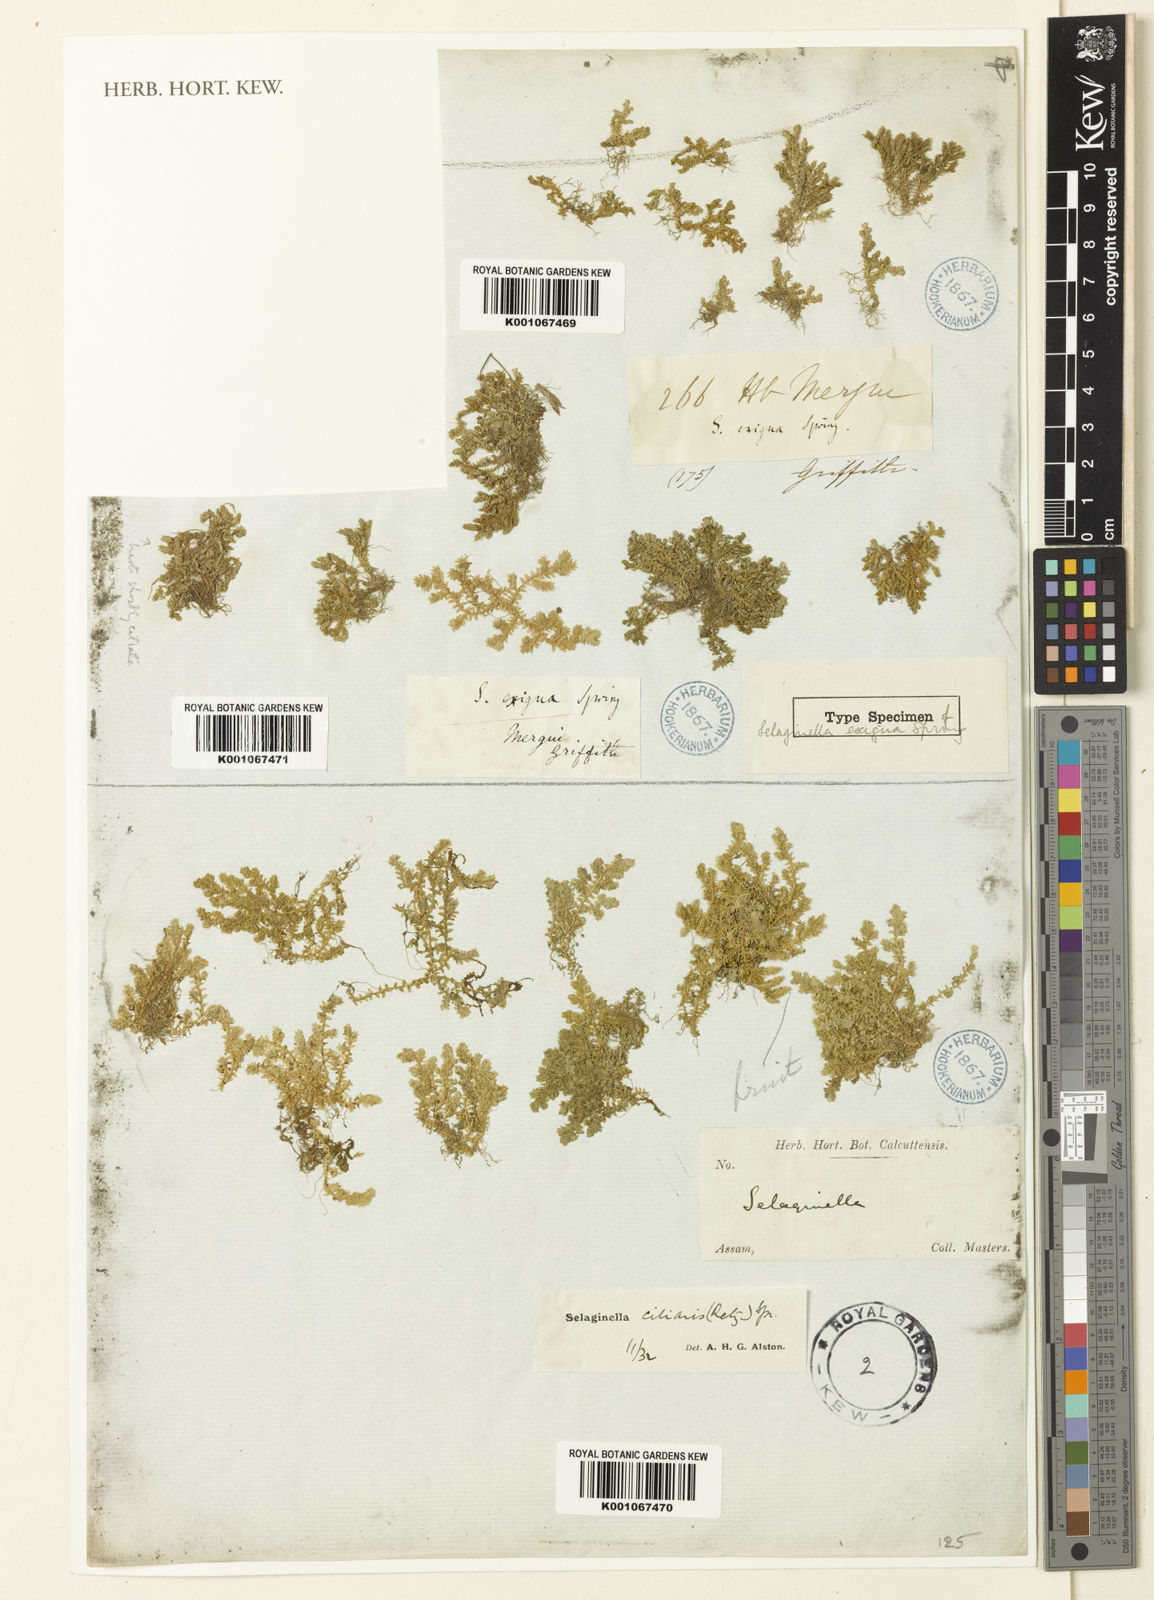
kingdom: Plantae
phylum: Tracheophyta
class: Lycopodiopsida
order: Selaginellales
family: Selaginellaceae
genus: Selaginella
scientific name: Selaginella ciliaris
